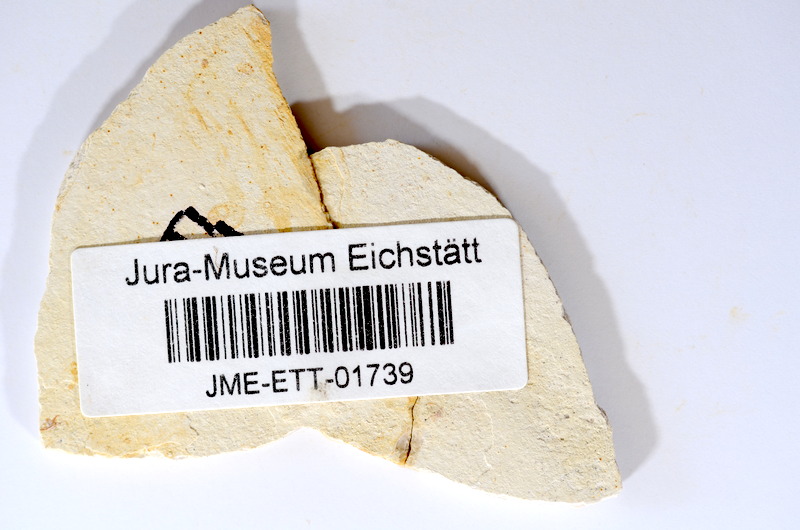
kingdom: Animalia
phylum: Chordata
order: Salmoniformes
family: Orthogonikleithridae
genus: Orthogonikleithrus
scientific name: Orthogonikleithrus hoelli
